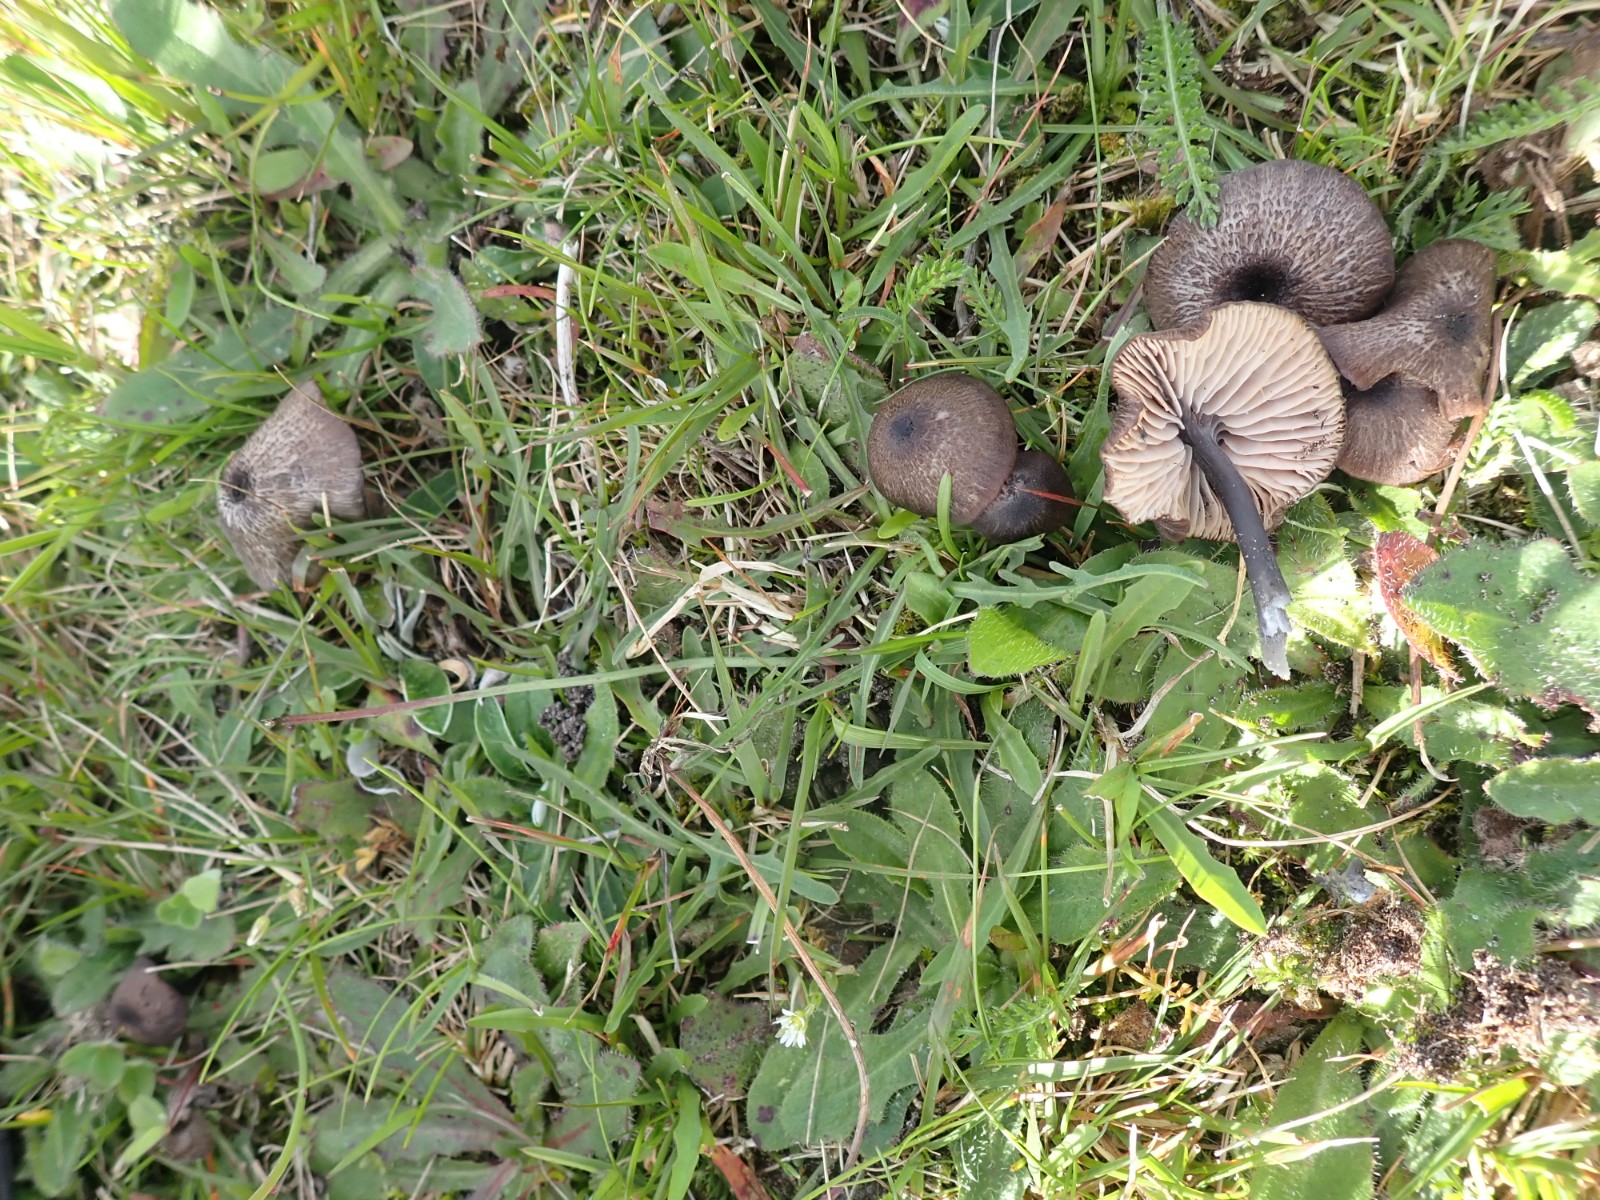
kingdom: Fungi
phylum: Basidiomycota
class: Agaricomycetes
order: Agaricales
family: Entolomataceae
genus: Entoloma
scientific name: Entoloma porphyrogriseum
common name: porfyrgrå rødblad
